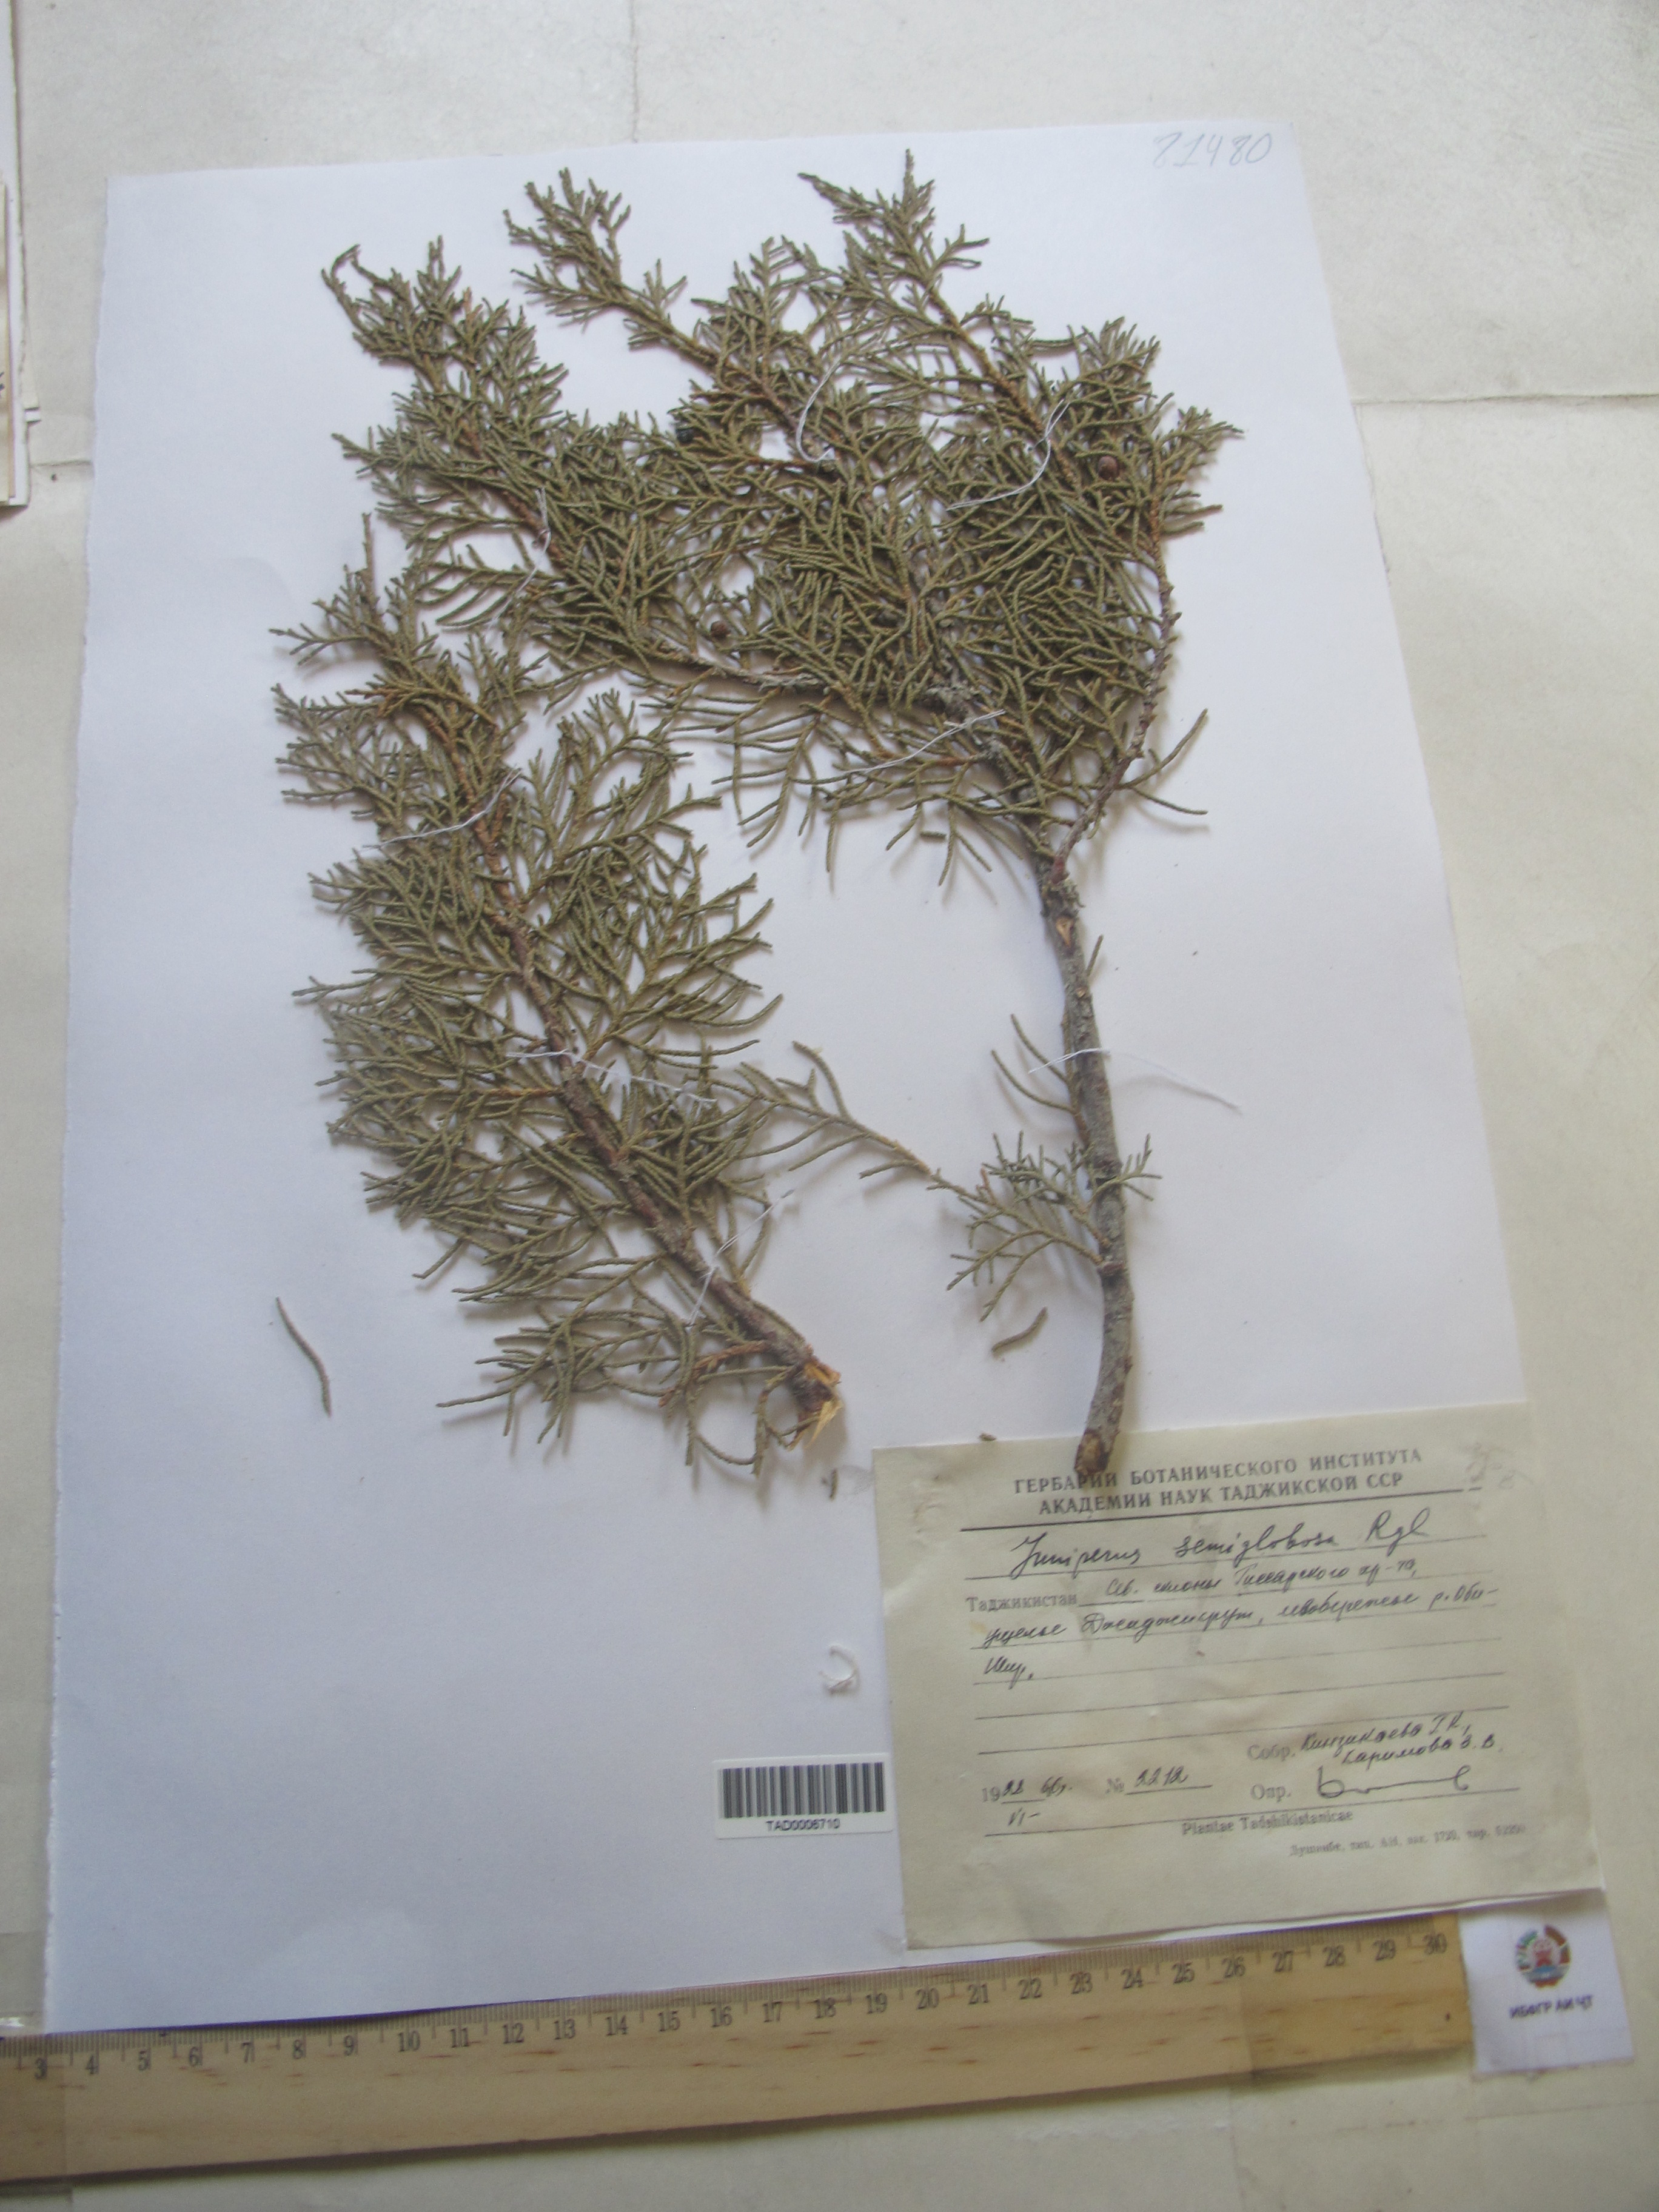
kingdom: Plantae
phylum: Tracheophyta
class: Pinopsida
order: Pinales
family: Cupressaceae
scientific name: Cupressaceae
